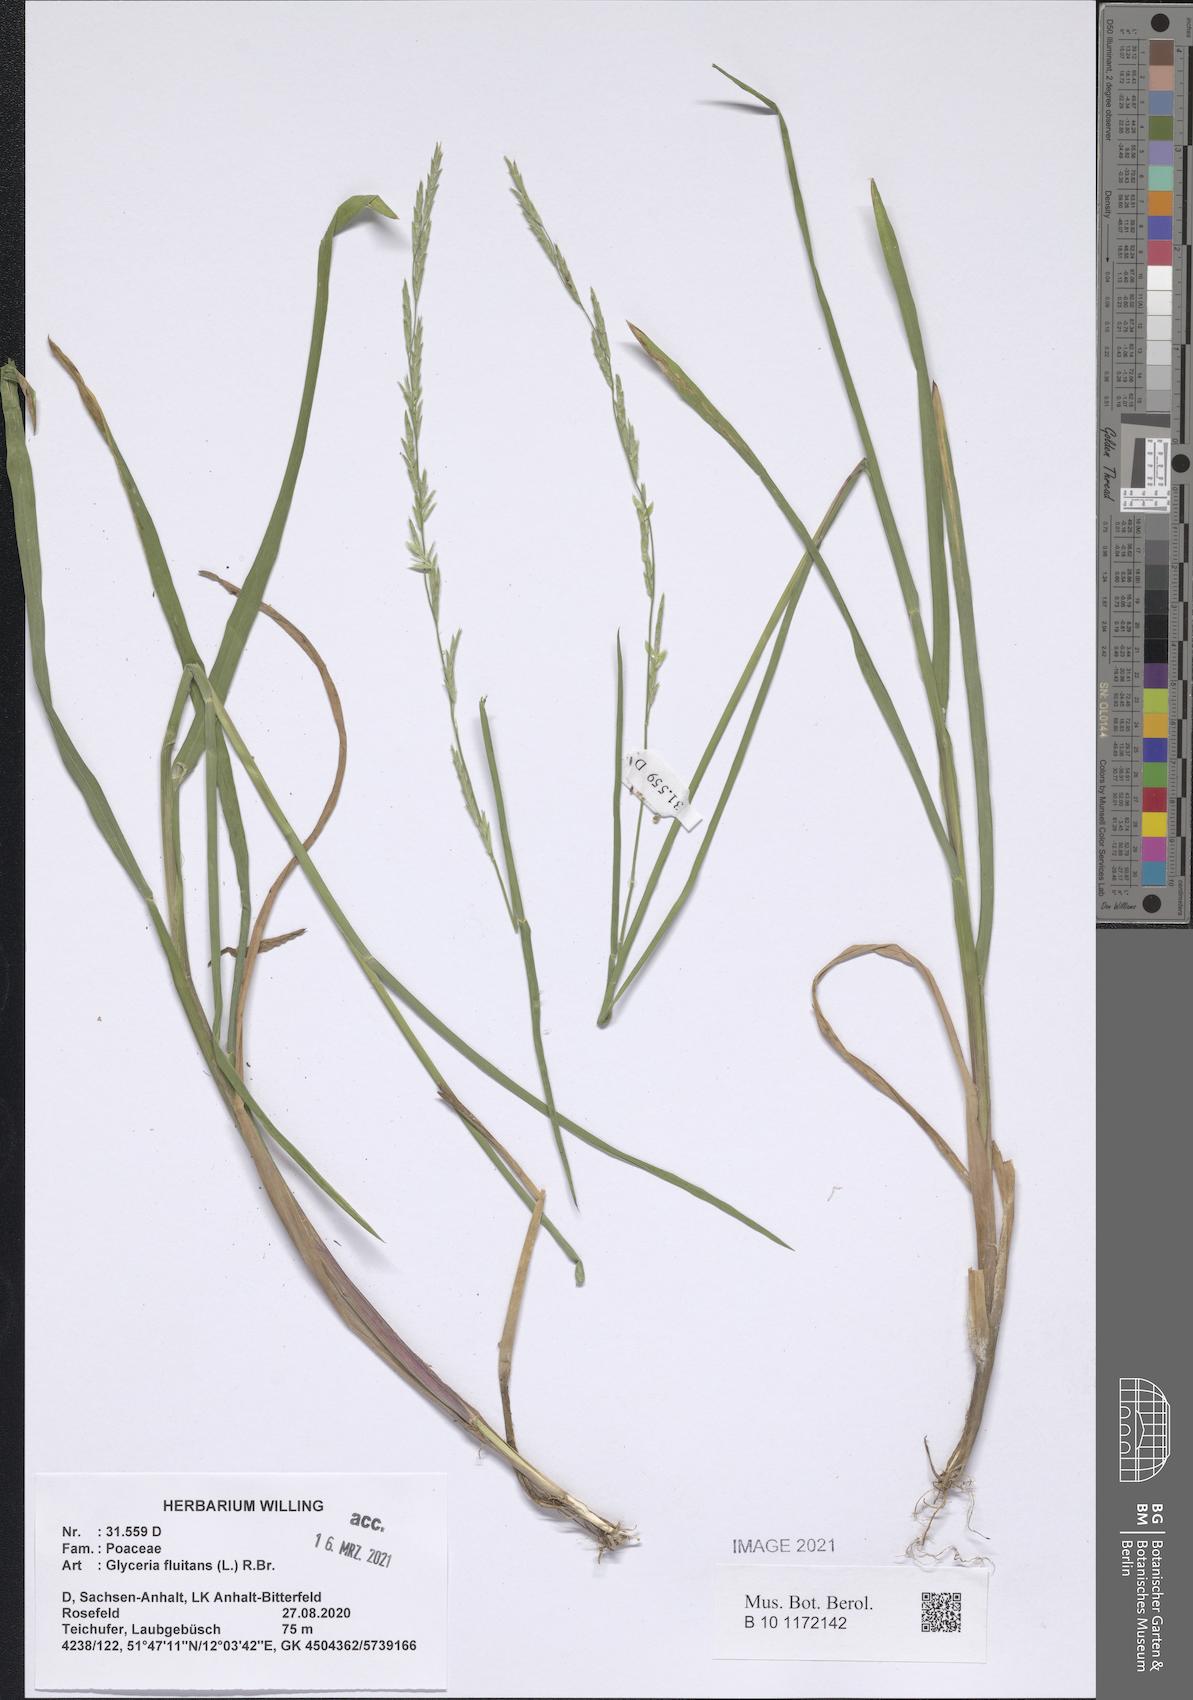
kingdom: Plantae
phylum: Tracheophyta
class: Liliopsida
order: Poales
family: Poaceae
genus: Glyceria
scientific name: Glyceria fluitans
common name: Floating sweet-grass
